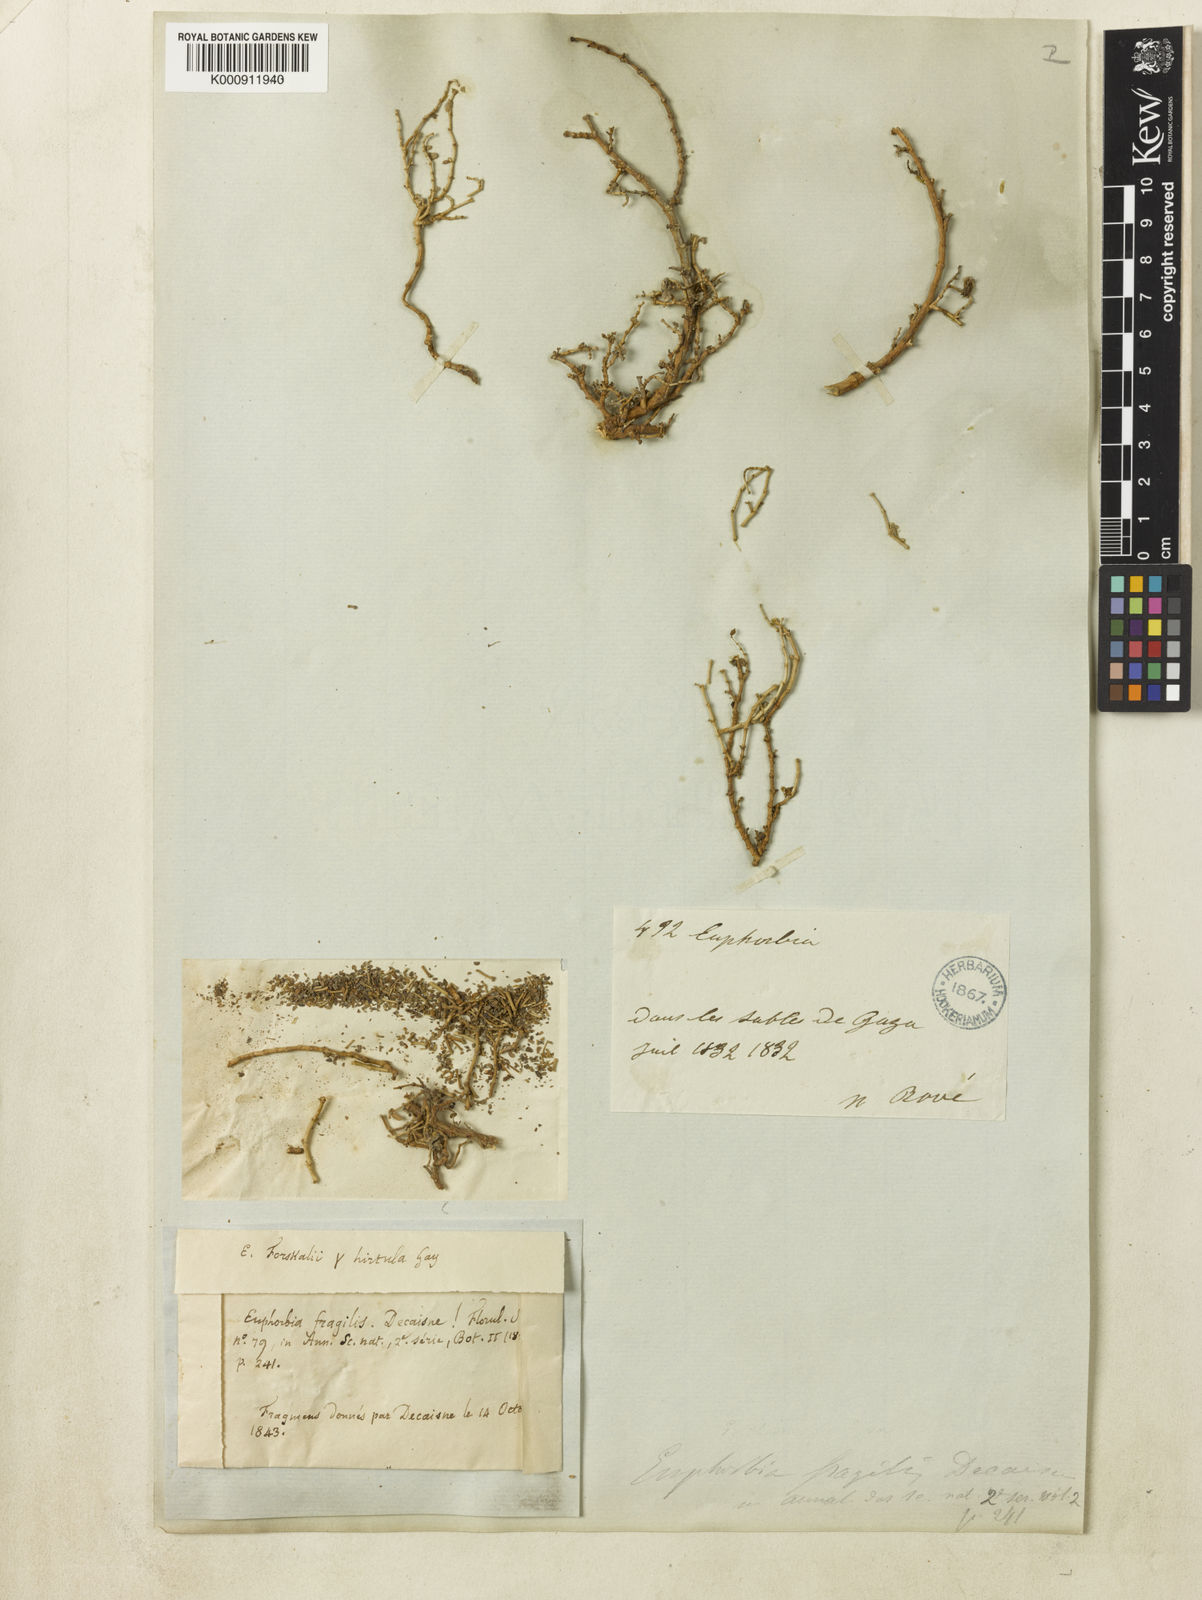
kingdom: Plantae
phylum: Tracheophyta
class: Magnoliopsida
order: Malpighiales
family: Euphorbiaceae
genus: Euphorbia
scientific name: Euphorbia granulata
